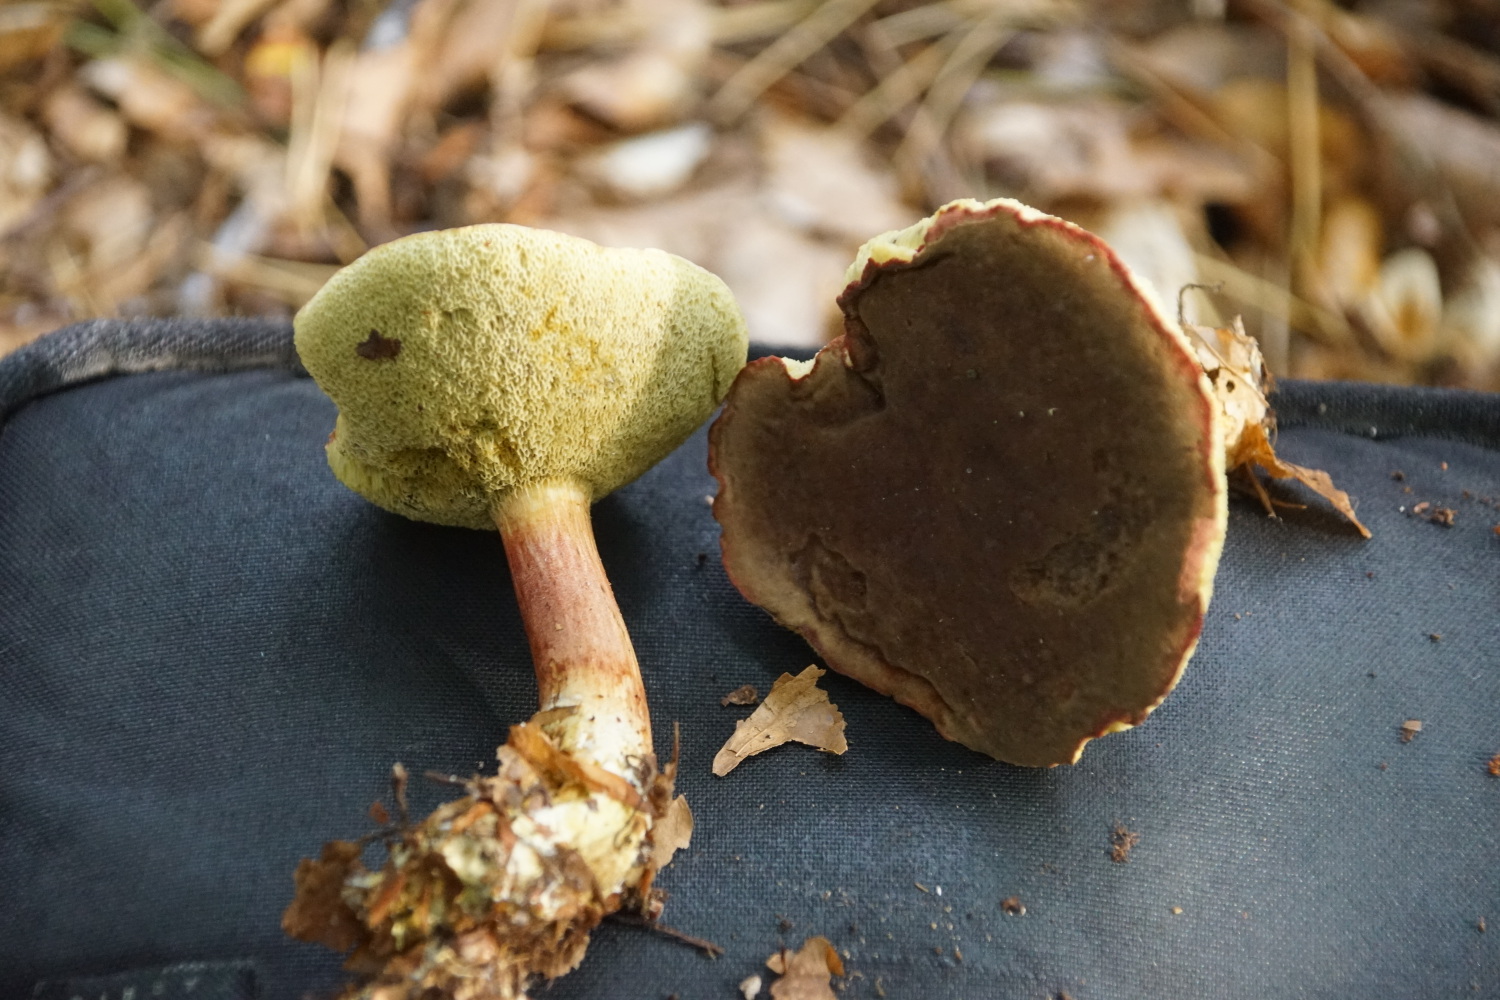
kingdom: Fungi
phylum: Basidiomycota
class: Agaricomycetes
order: Boletales
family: Boletaceae
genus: Xerocomellus
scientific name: Xerocomellus pruinatus
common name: dugget rørhat
